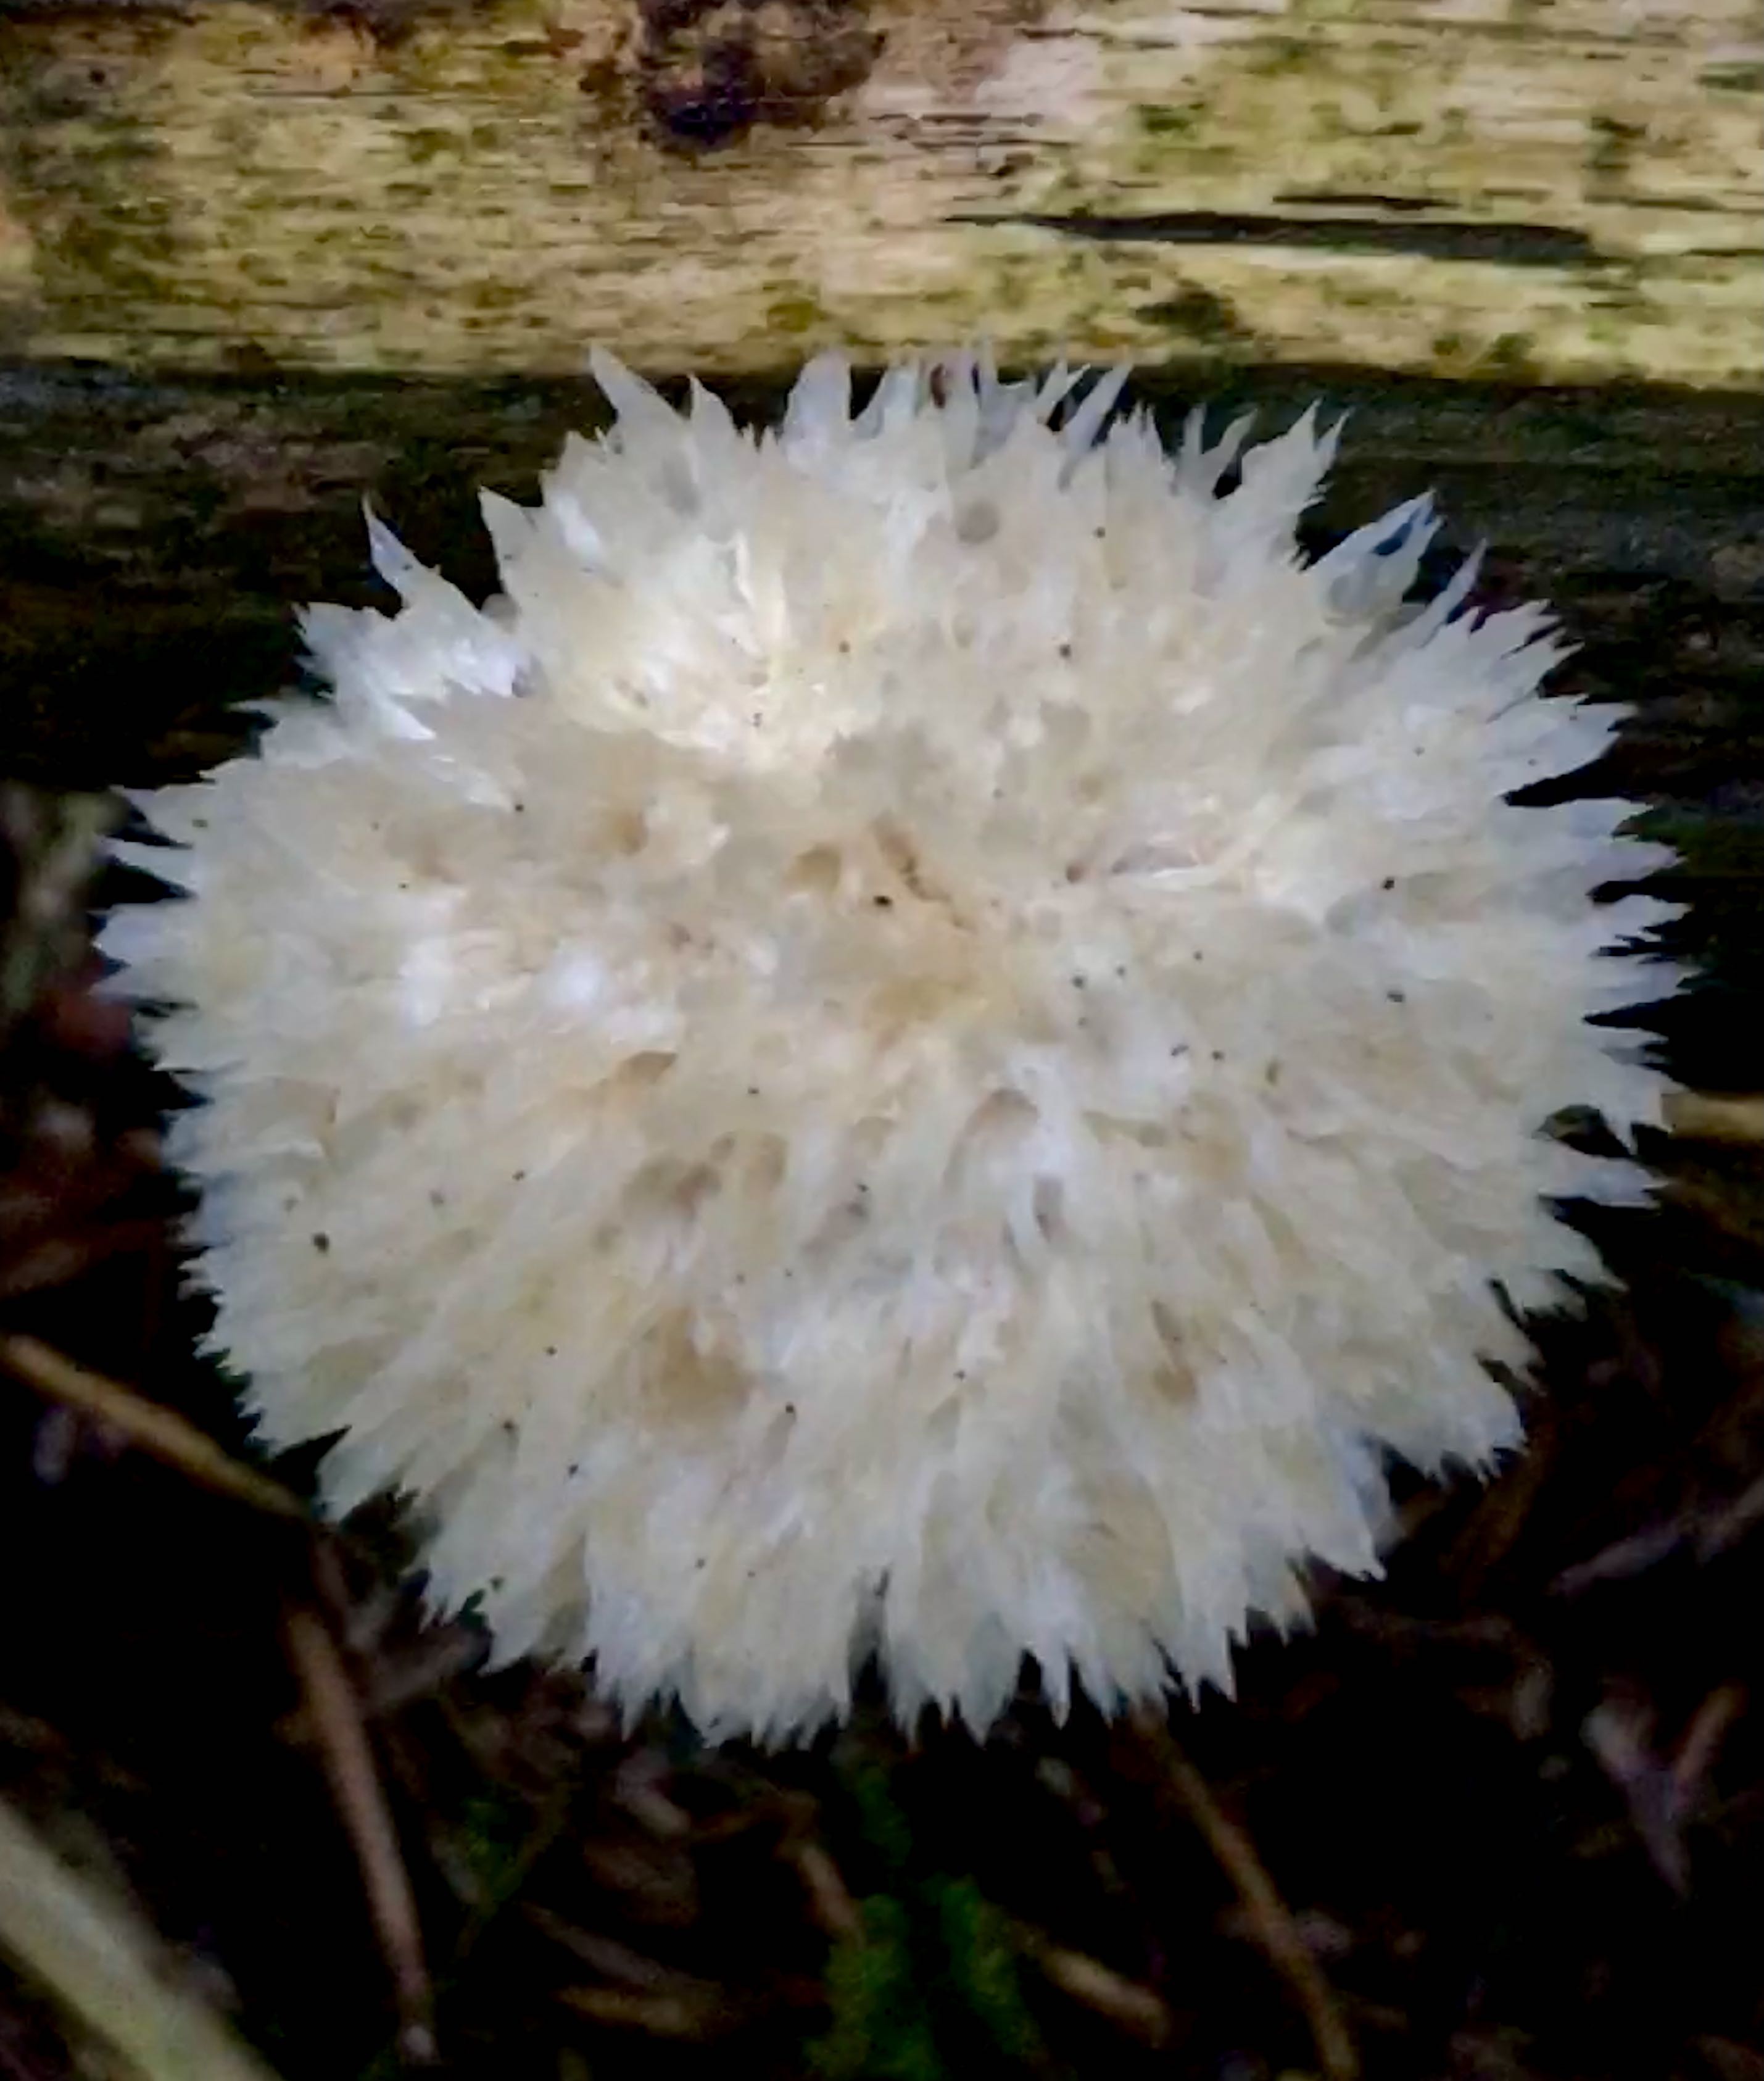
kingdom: Fungi
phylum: Basidiomycota
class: Agaricomycetes
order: Polyporales
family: Dacryobolaceae
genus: Postia
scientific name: Postia ptychogaster
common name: støvende kødporesvamp
